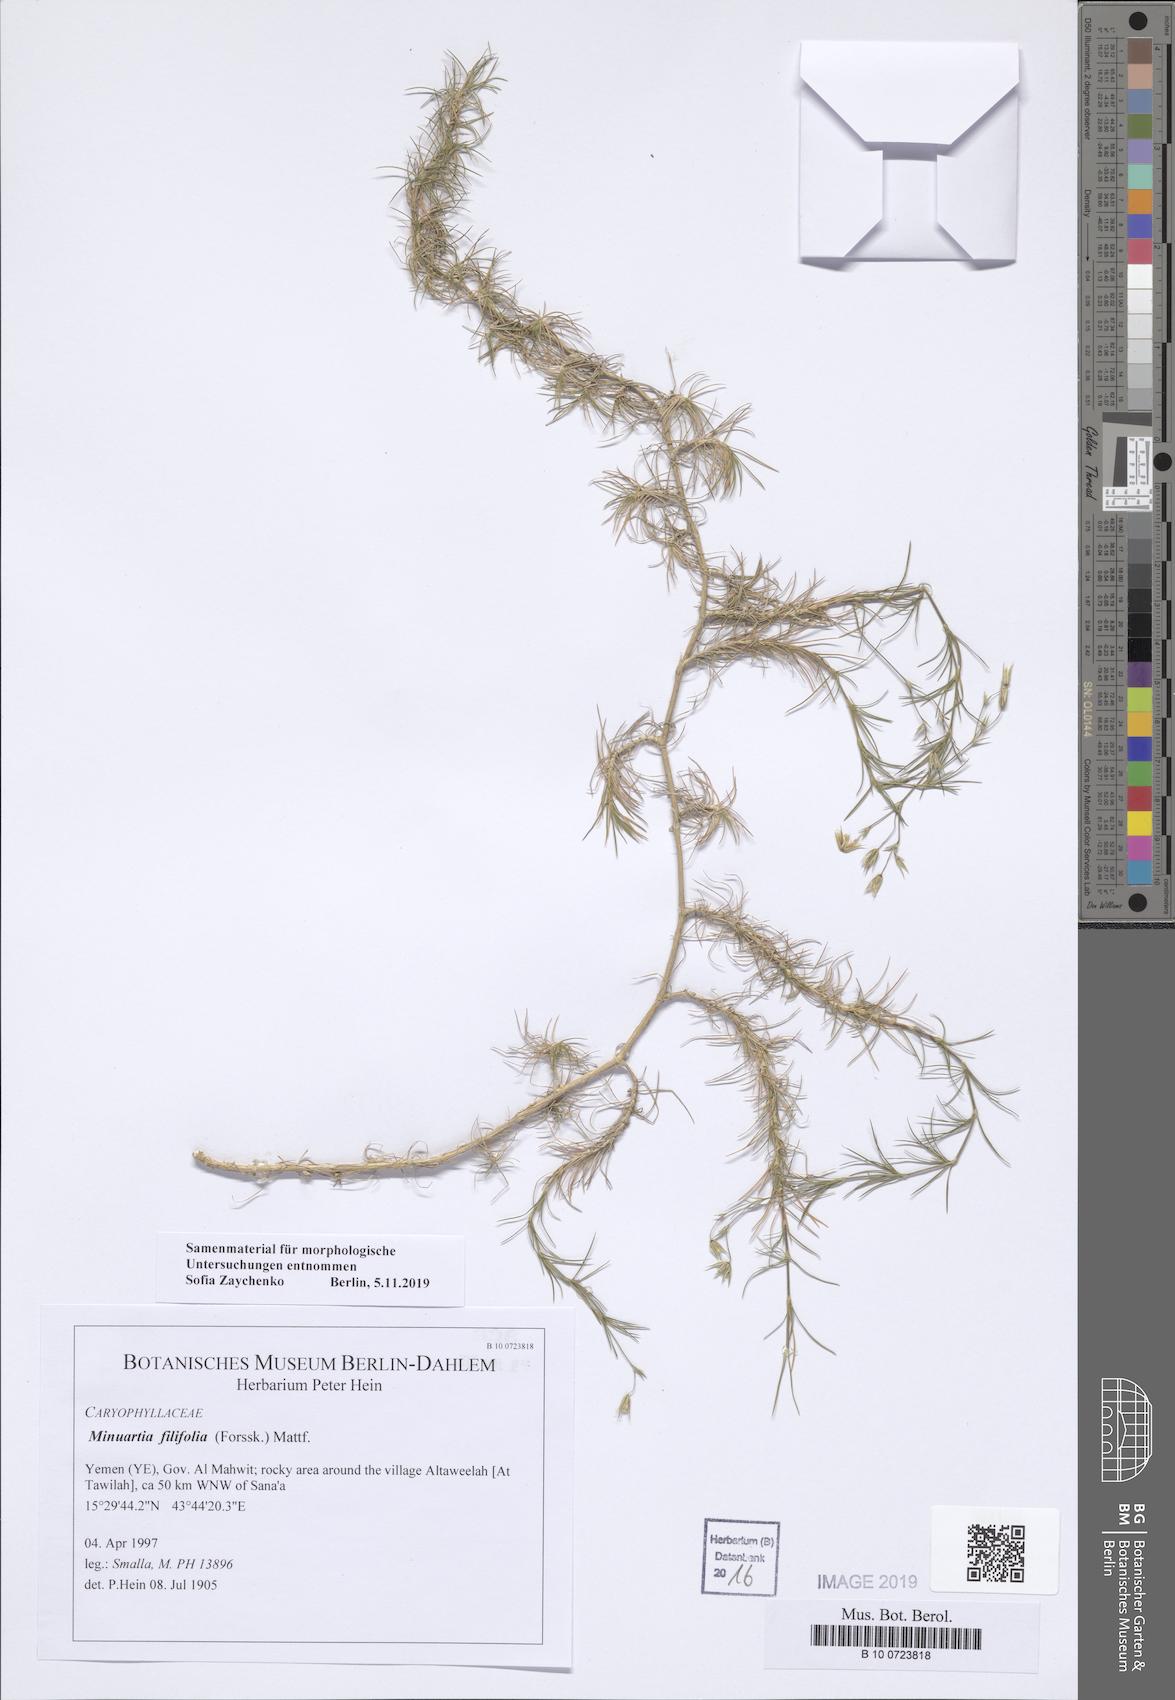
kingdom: Plantae
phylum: Tracheophyta
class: Magnoliopsida
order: Caryophyllales
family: Caryophyllaceae
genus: Minuartia
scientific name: Minuartia filifolia
